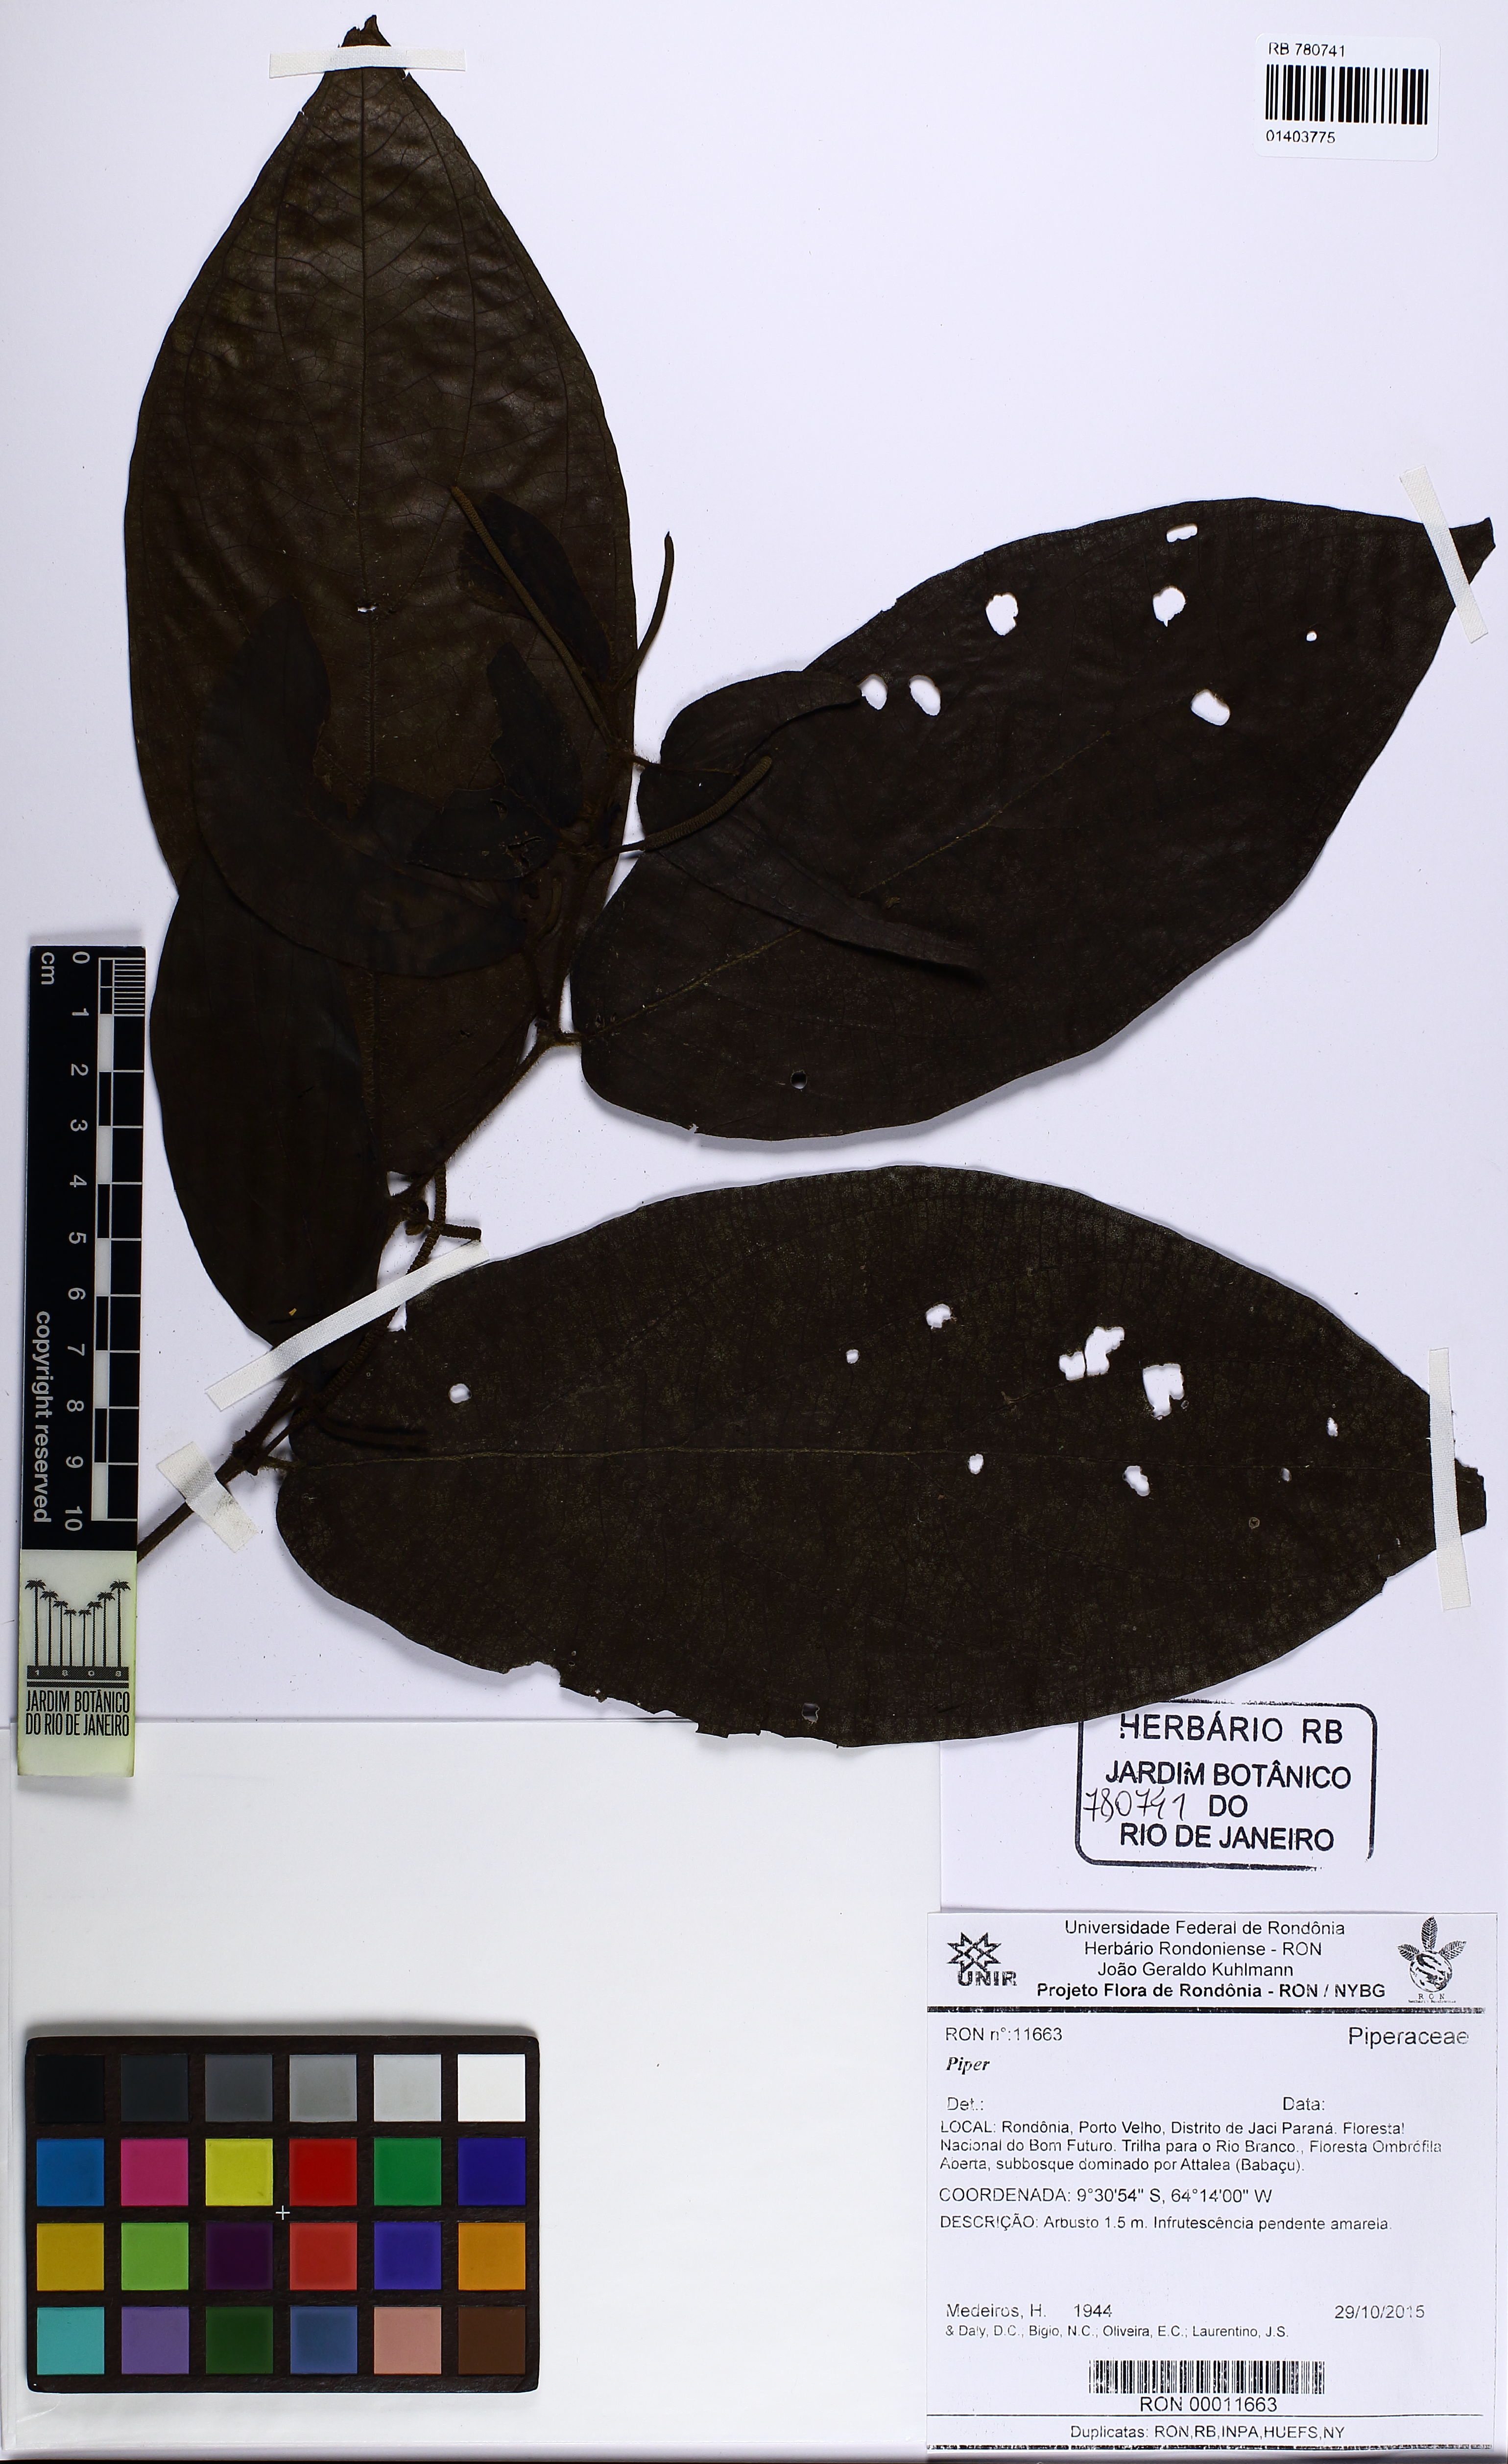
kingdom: Plantae
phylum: Tracheophyta
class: Magnoliopsida
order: Piperales
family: Piperaceae
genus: Piper
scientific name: Piper
